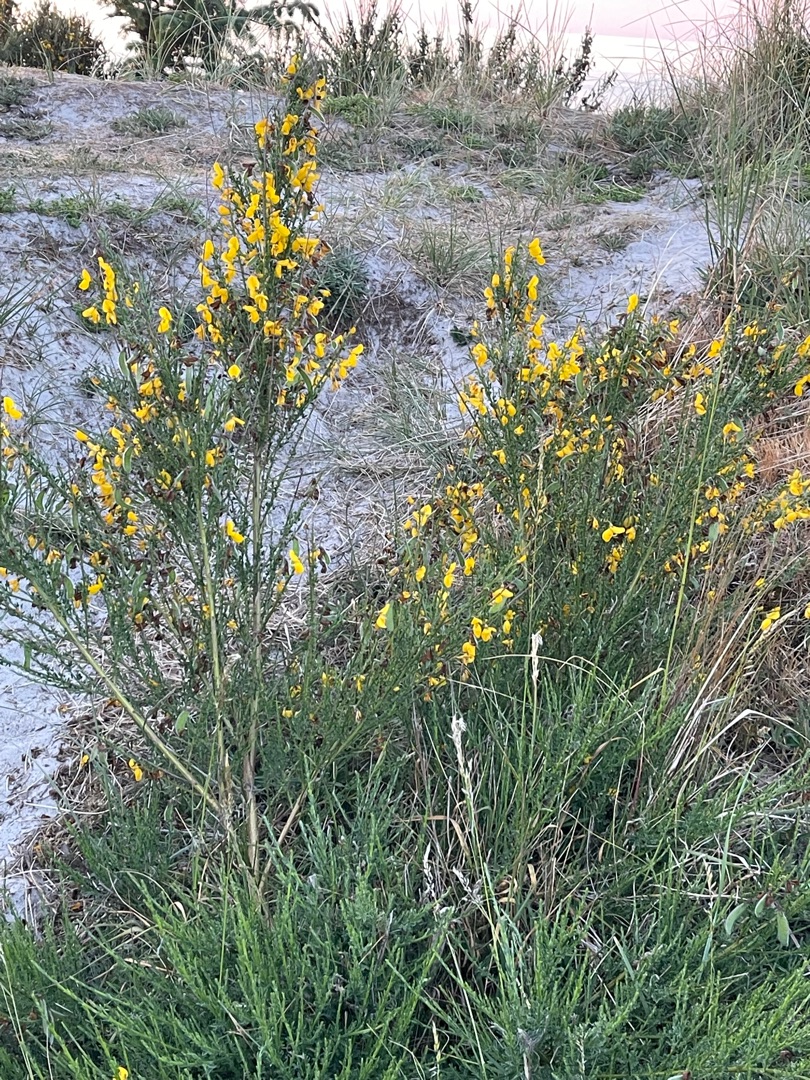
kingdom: Plantae
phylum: Tracheophyta
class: Magnoliopsida
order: Fabales
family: Fabaceae
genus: Cytisus
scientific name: Cytisus scoparius
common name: Almindelig gyvel
